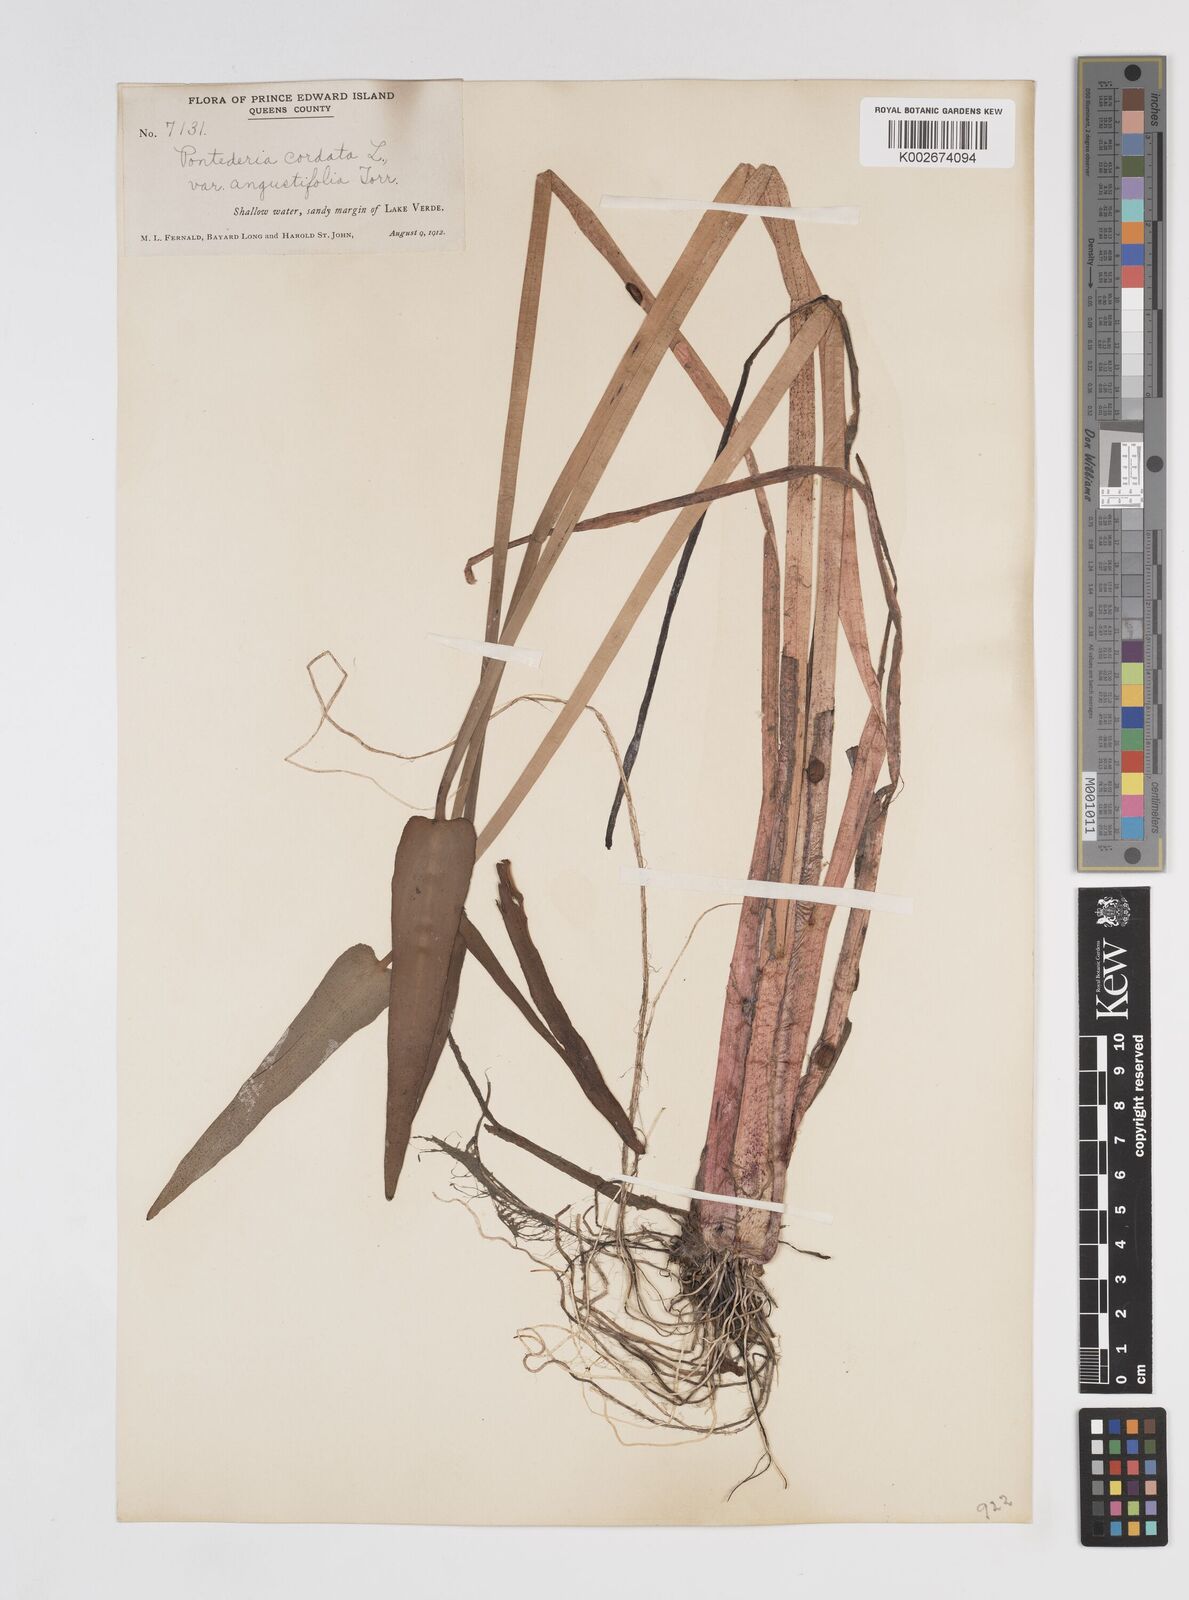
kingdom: Plantae
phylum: Tracheophyta
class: Liliopsida
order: Commelinales
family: Pontederiaceae
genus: Pontederia
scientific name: Pontederia cordata
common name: Pickerelweed
